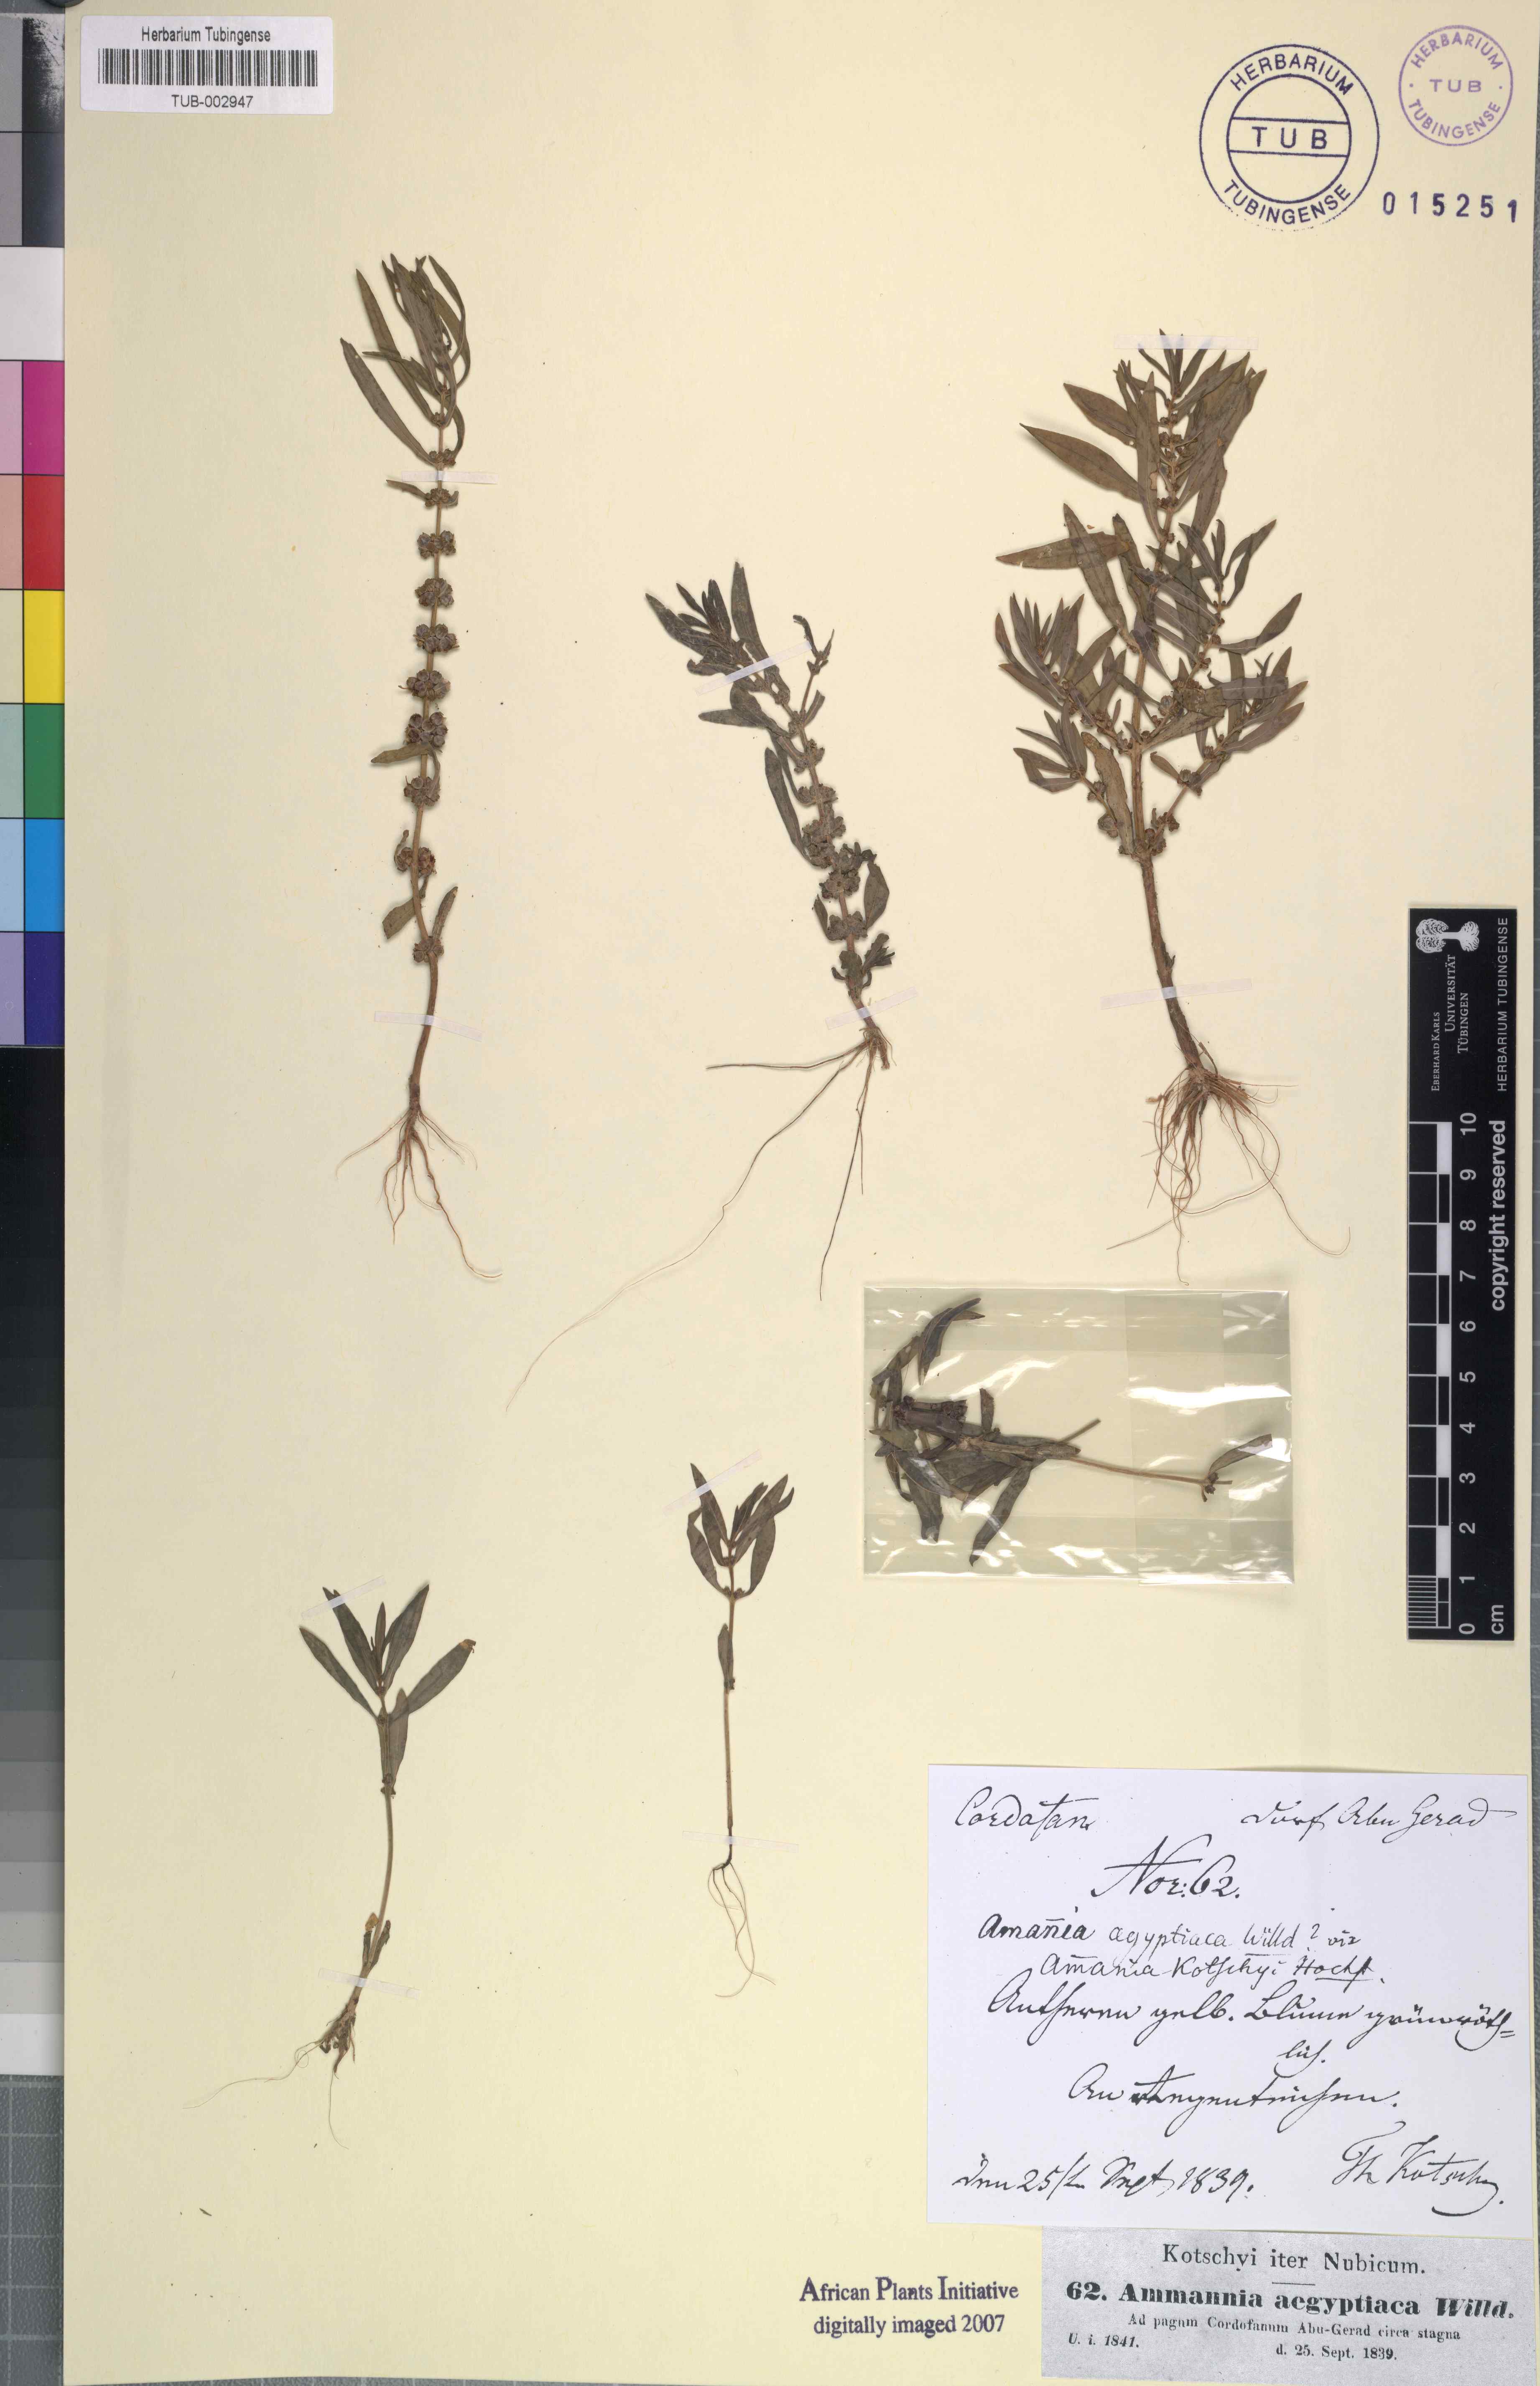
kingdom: Plantae
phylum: Tracheophyta
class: Magnoliopsida
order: Myrtales
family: Lythraceae
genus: Ammannia
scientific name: Ammannia baccifera
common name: Blistering ammania
